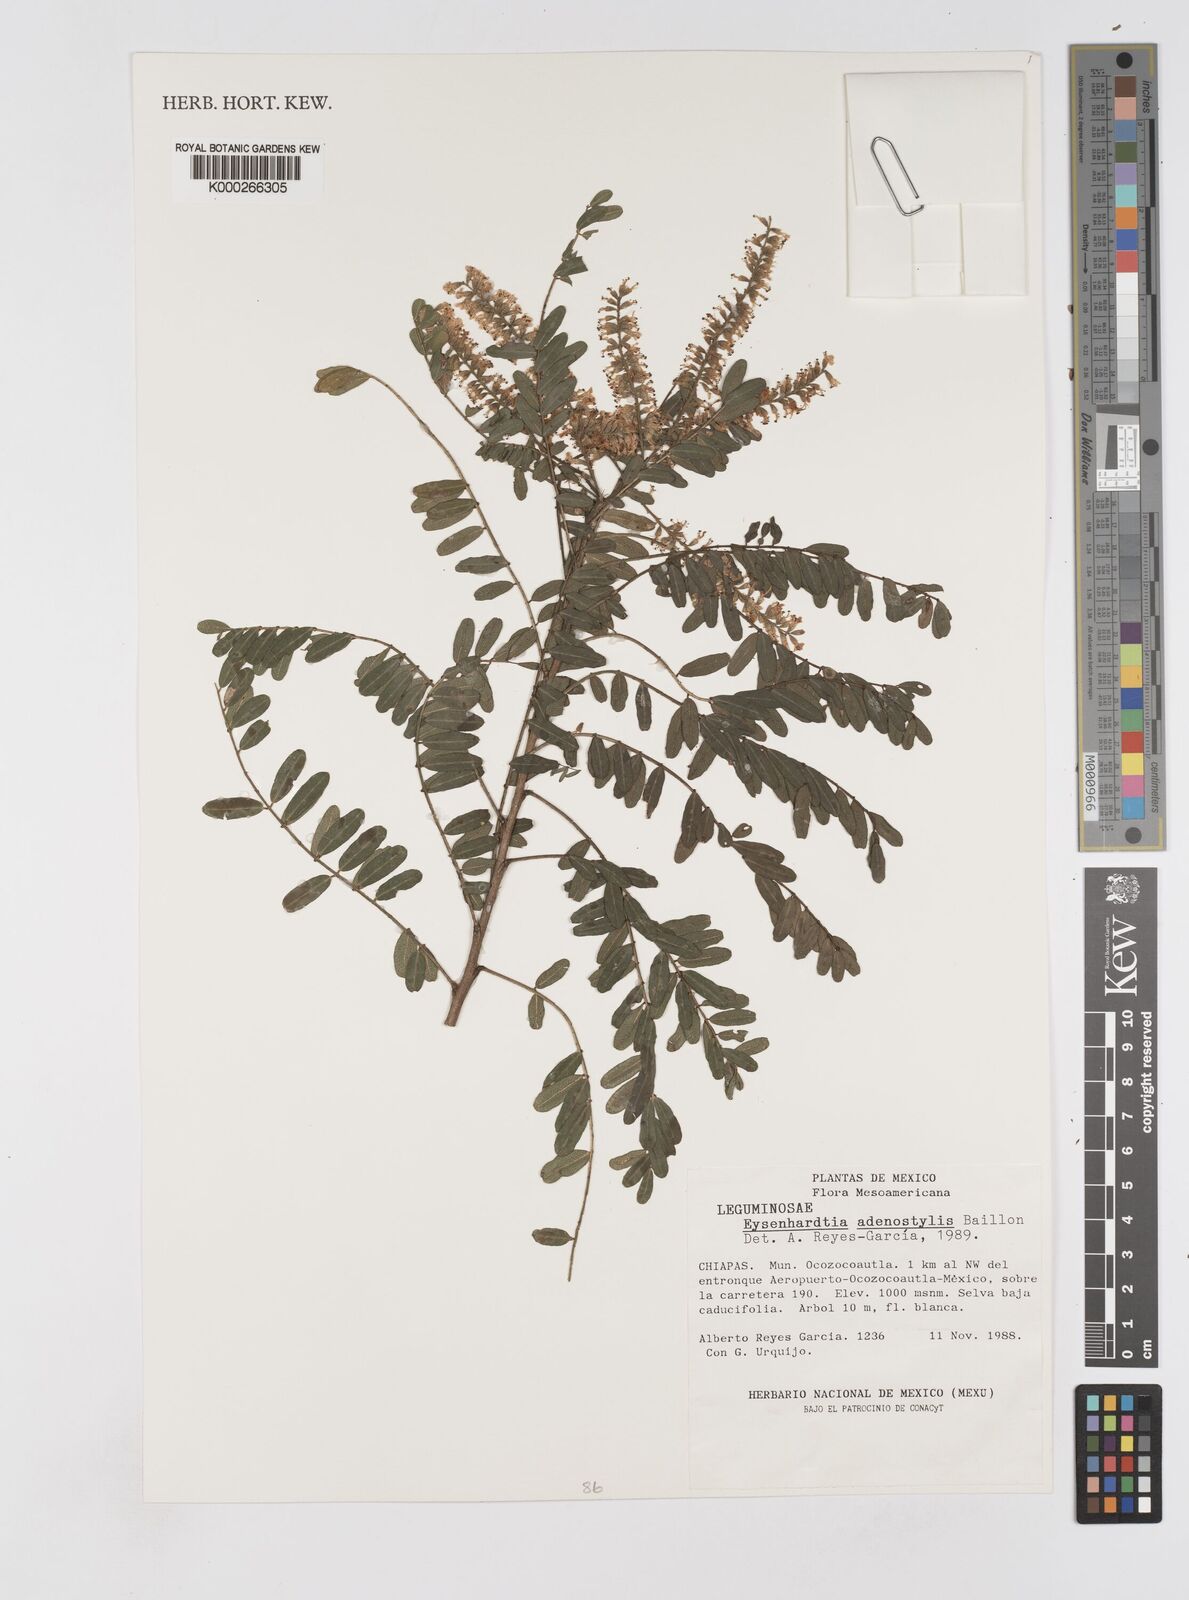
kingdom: Plantae
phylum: Tracheophyta
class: Magnoliopsida
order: Fabales
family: Fabaceae
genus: Eysenhardtia
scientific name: Eysenhardtia adenostylis
